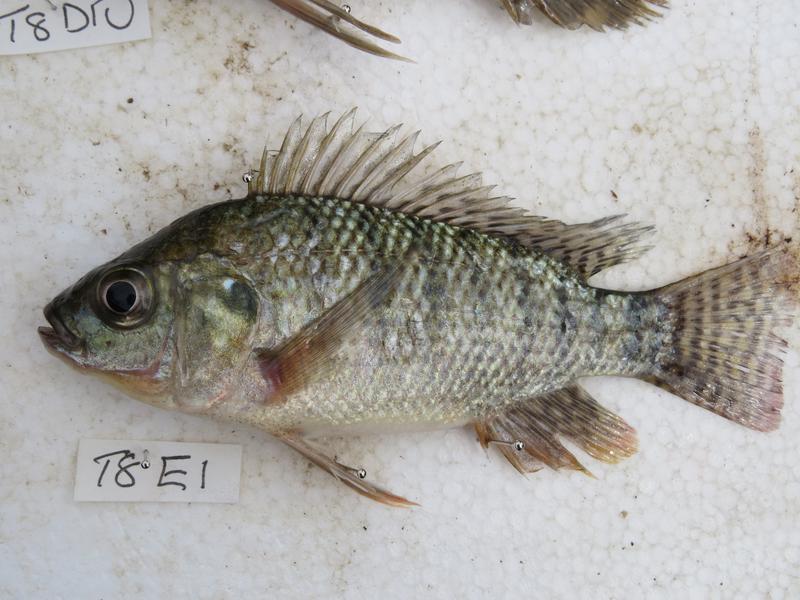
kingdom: Animalia
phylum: Chordata
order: Perciformes
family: Cichlidae
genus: Oreochromis
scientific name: Oreochromis niloticus
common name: Nile tilapia
